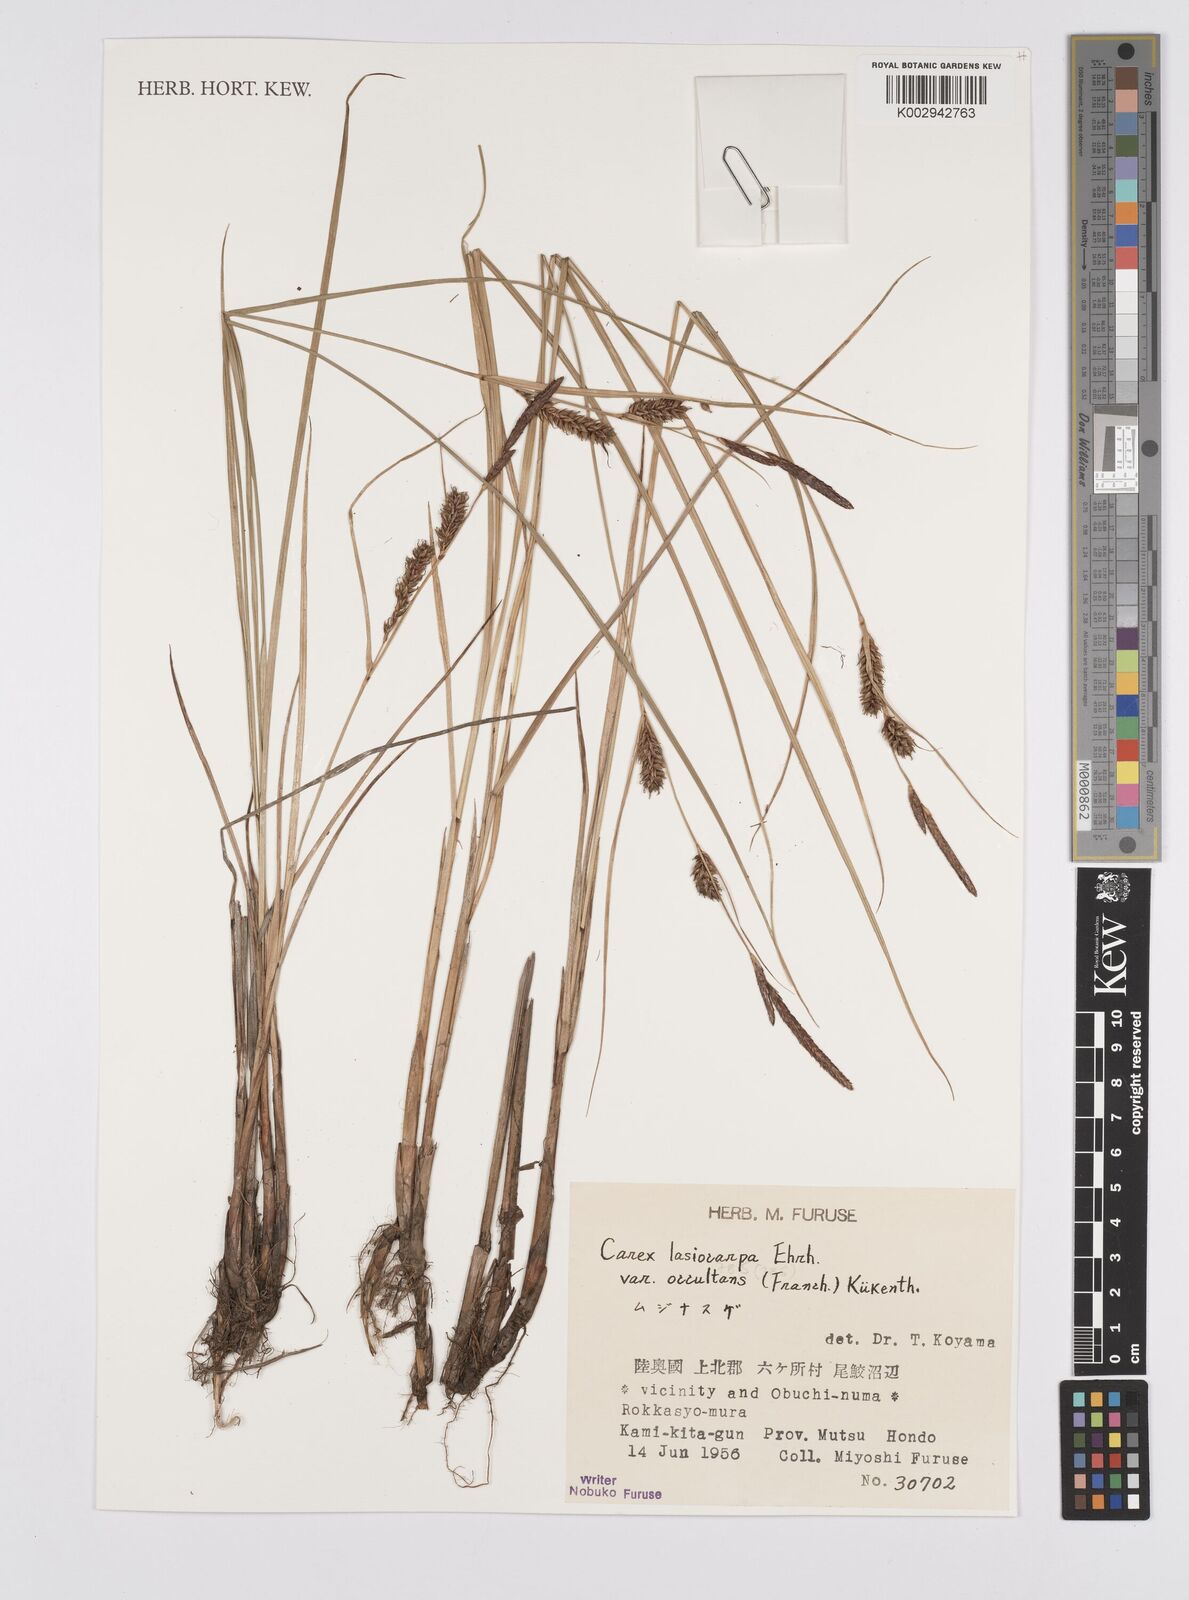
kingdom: Plantae
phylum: Tracheophyta
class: Liliopsida
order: Poales
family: Cyperaceae
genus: Carex
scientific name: Carex lasiocarpa
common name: Slender sedge
